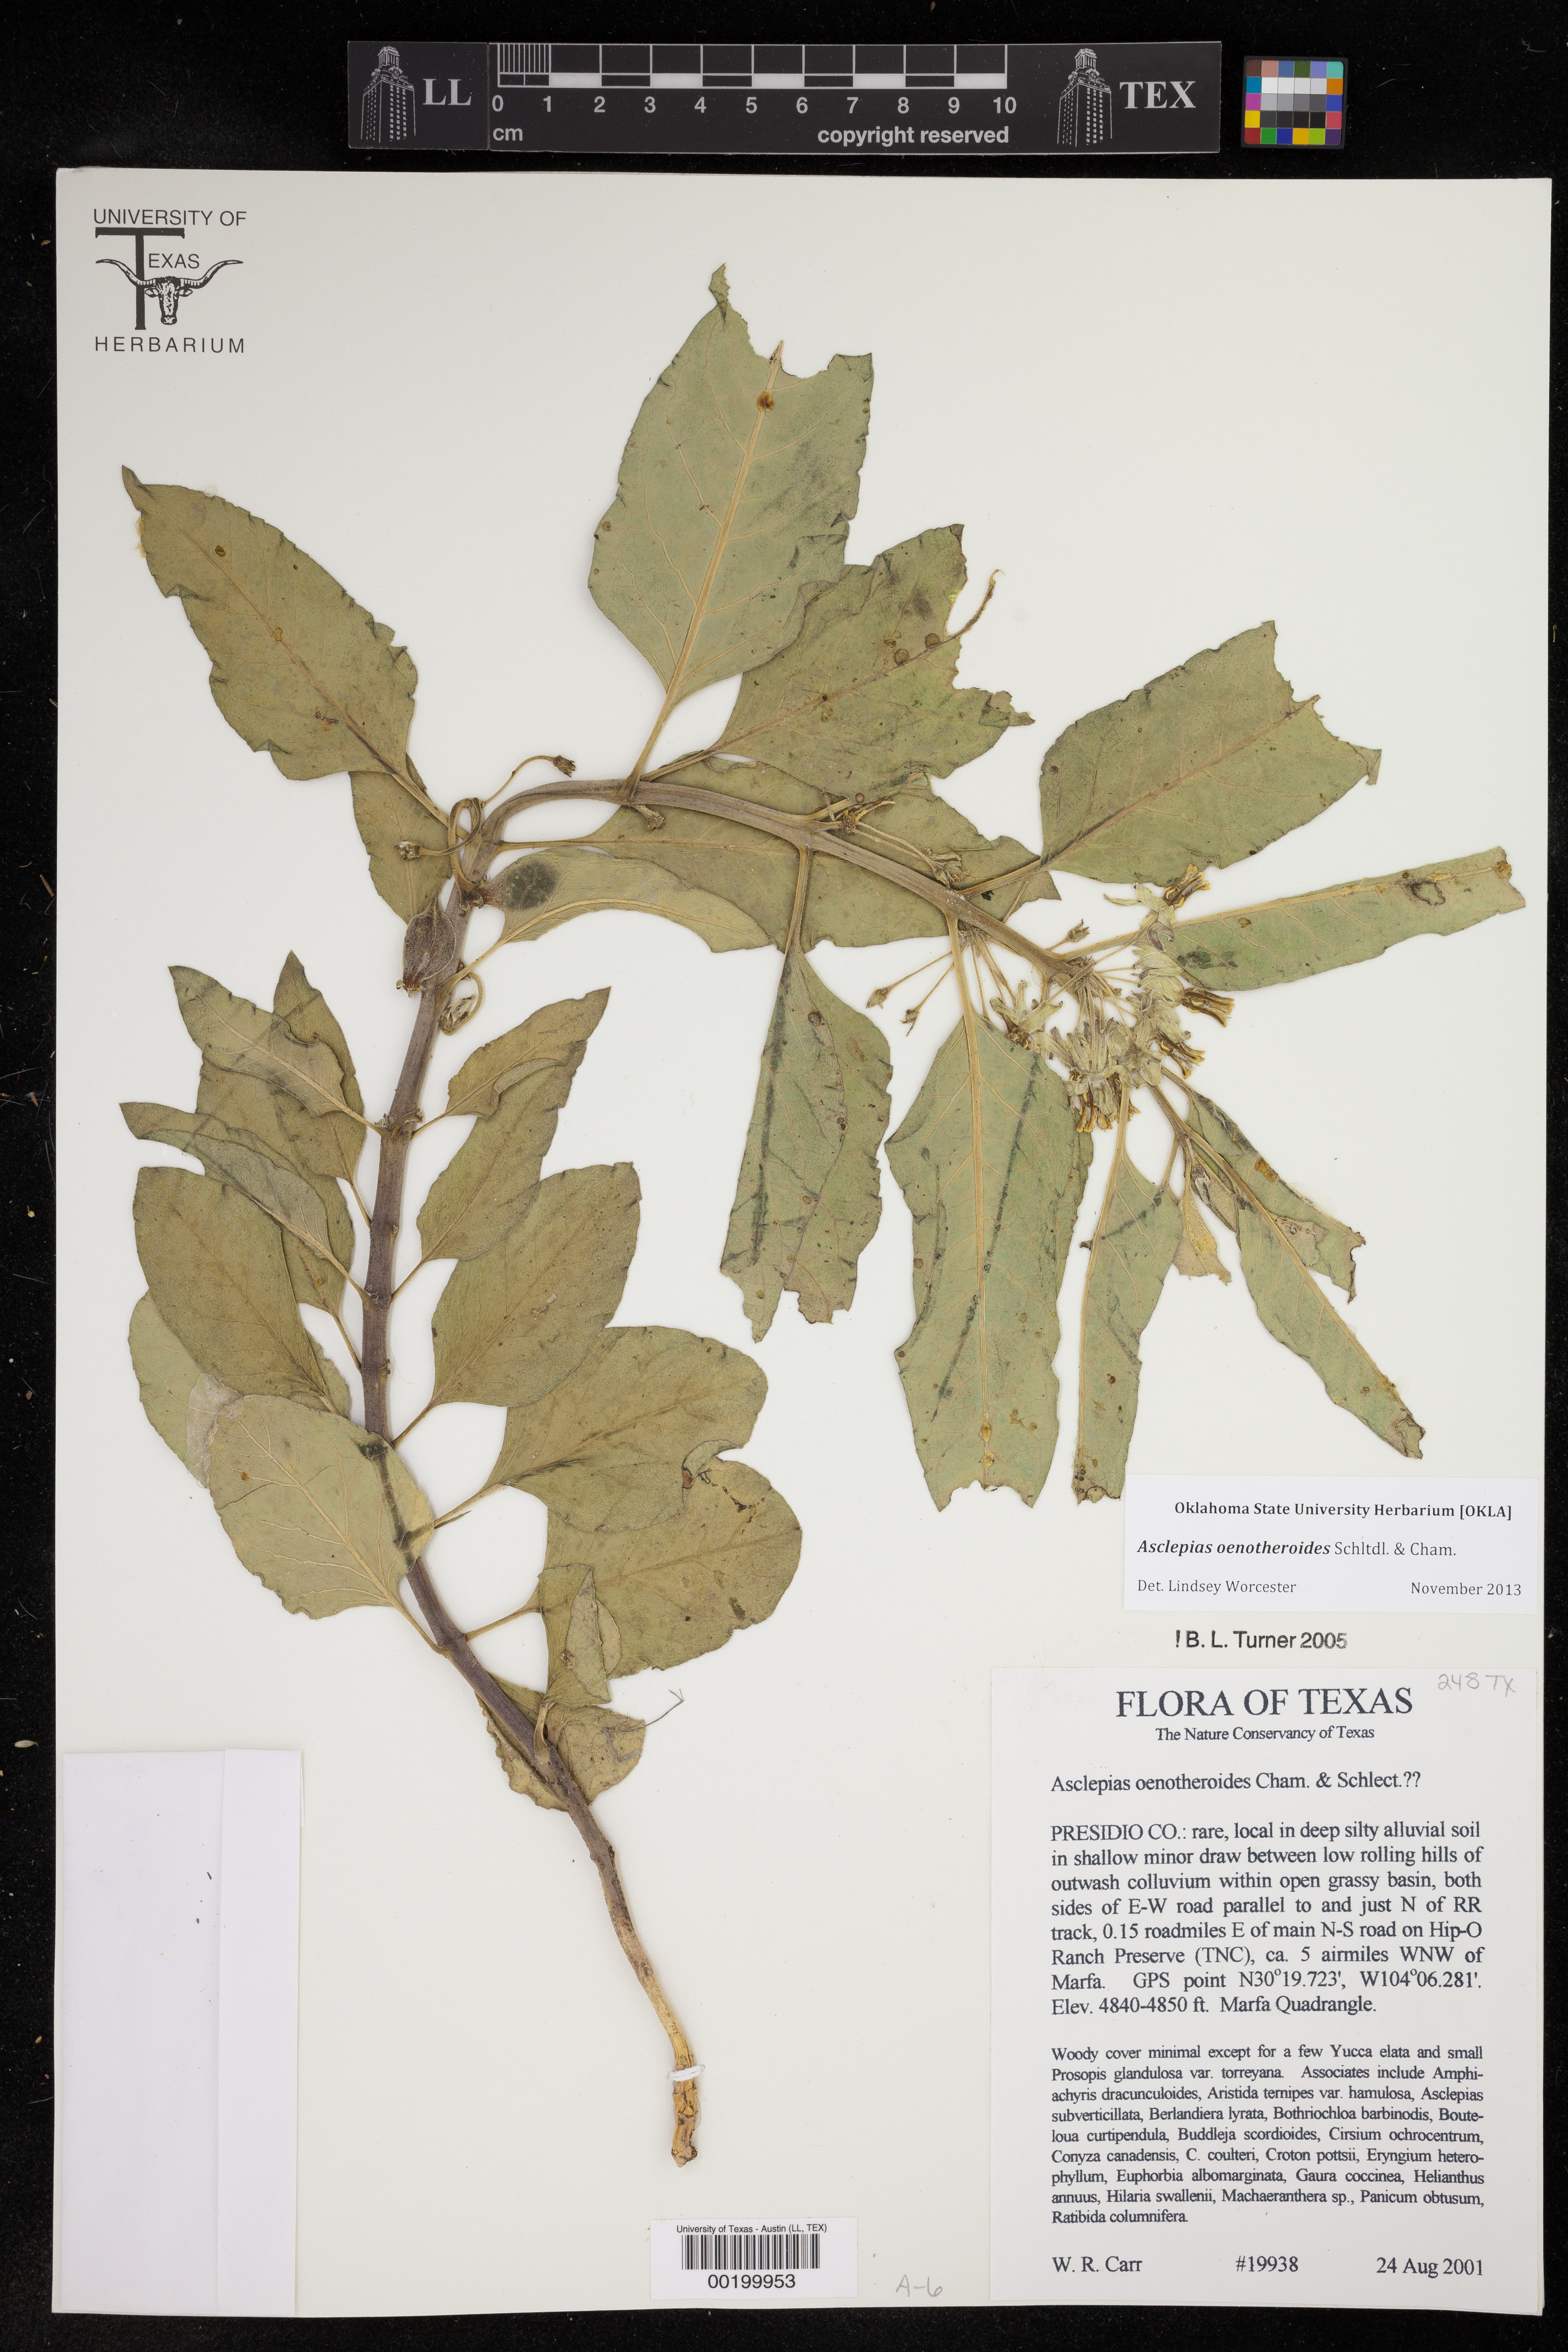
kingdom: Plantae
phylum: Tracheophyta
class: Magnoliopsida
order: Gentianales
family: Apocynaceae
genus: Asclepias
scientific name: Asclepias oenotheroides
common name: Zizotes milkweed
